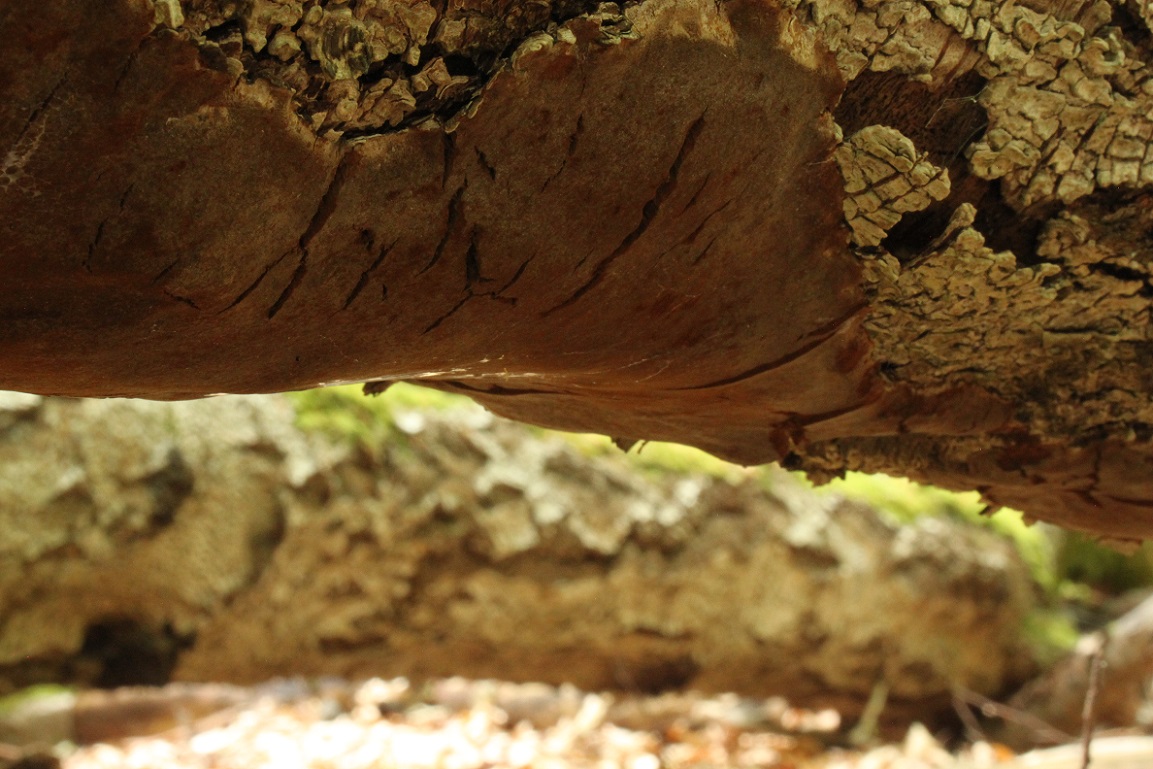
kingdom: Fungi
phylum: Basidiomycota
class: Agaricomycetes
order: Hymenochaetales
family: Hymenochaetaceae
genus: Phellinus
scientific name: Phellinus laevigatus
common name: glat ildporesvamp
